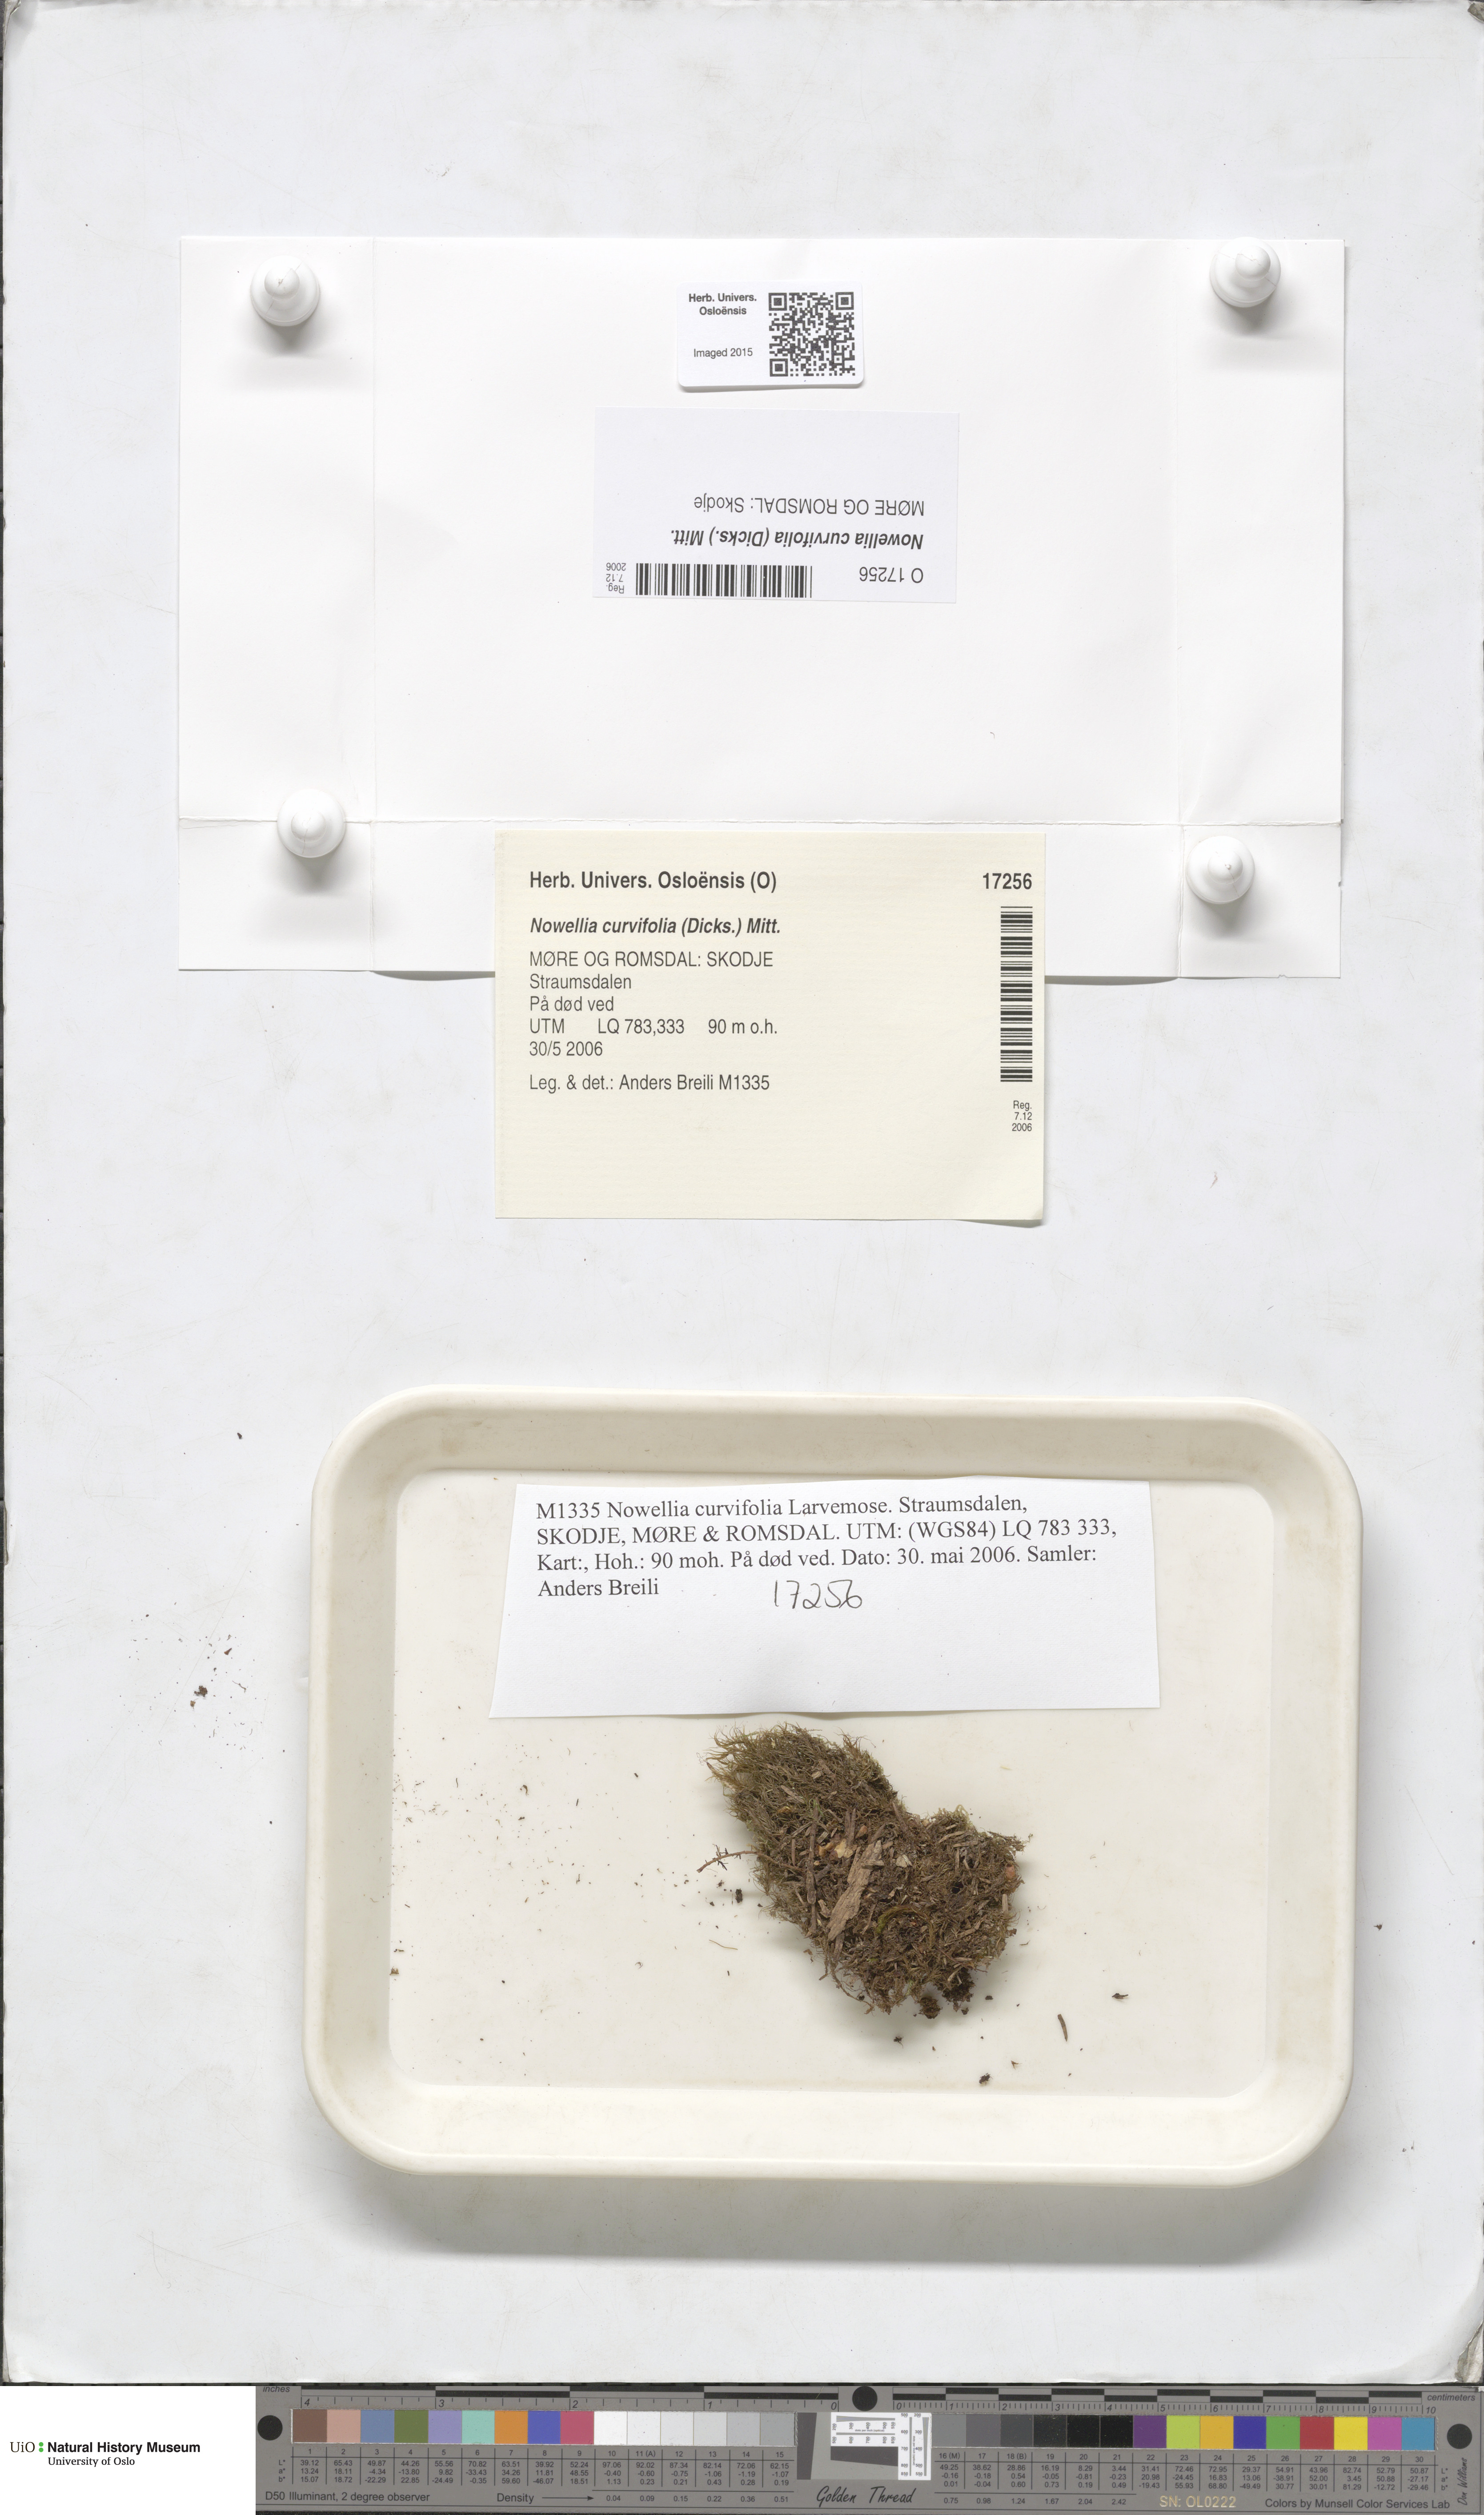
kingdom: Plantae
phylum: Marchantiophyta
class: Jungermanniopsida
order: Jungermanniales
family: Cephaloziaceae
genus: Nowellia
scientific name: Nowellia curvifolia
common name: Wood rustwort
